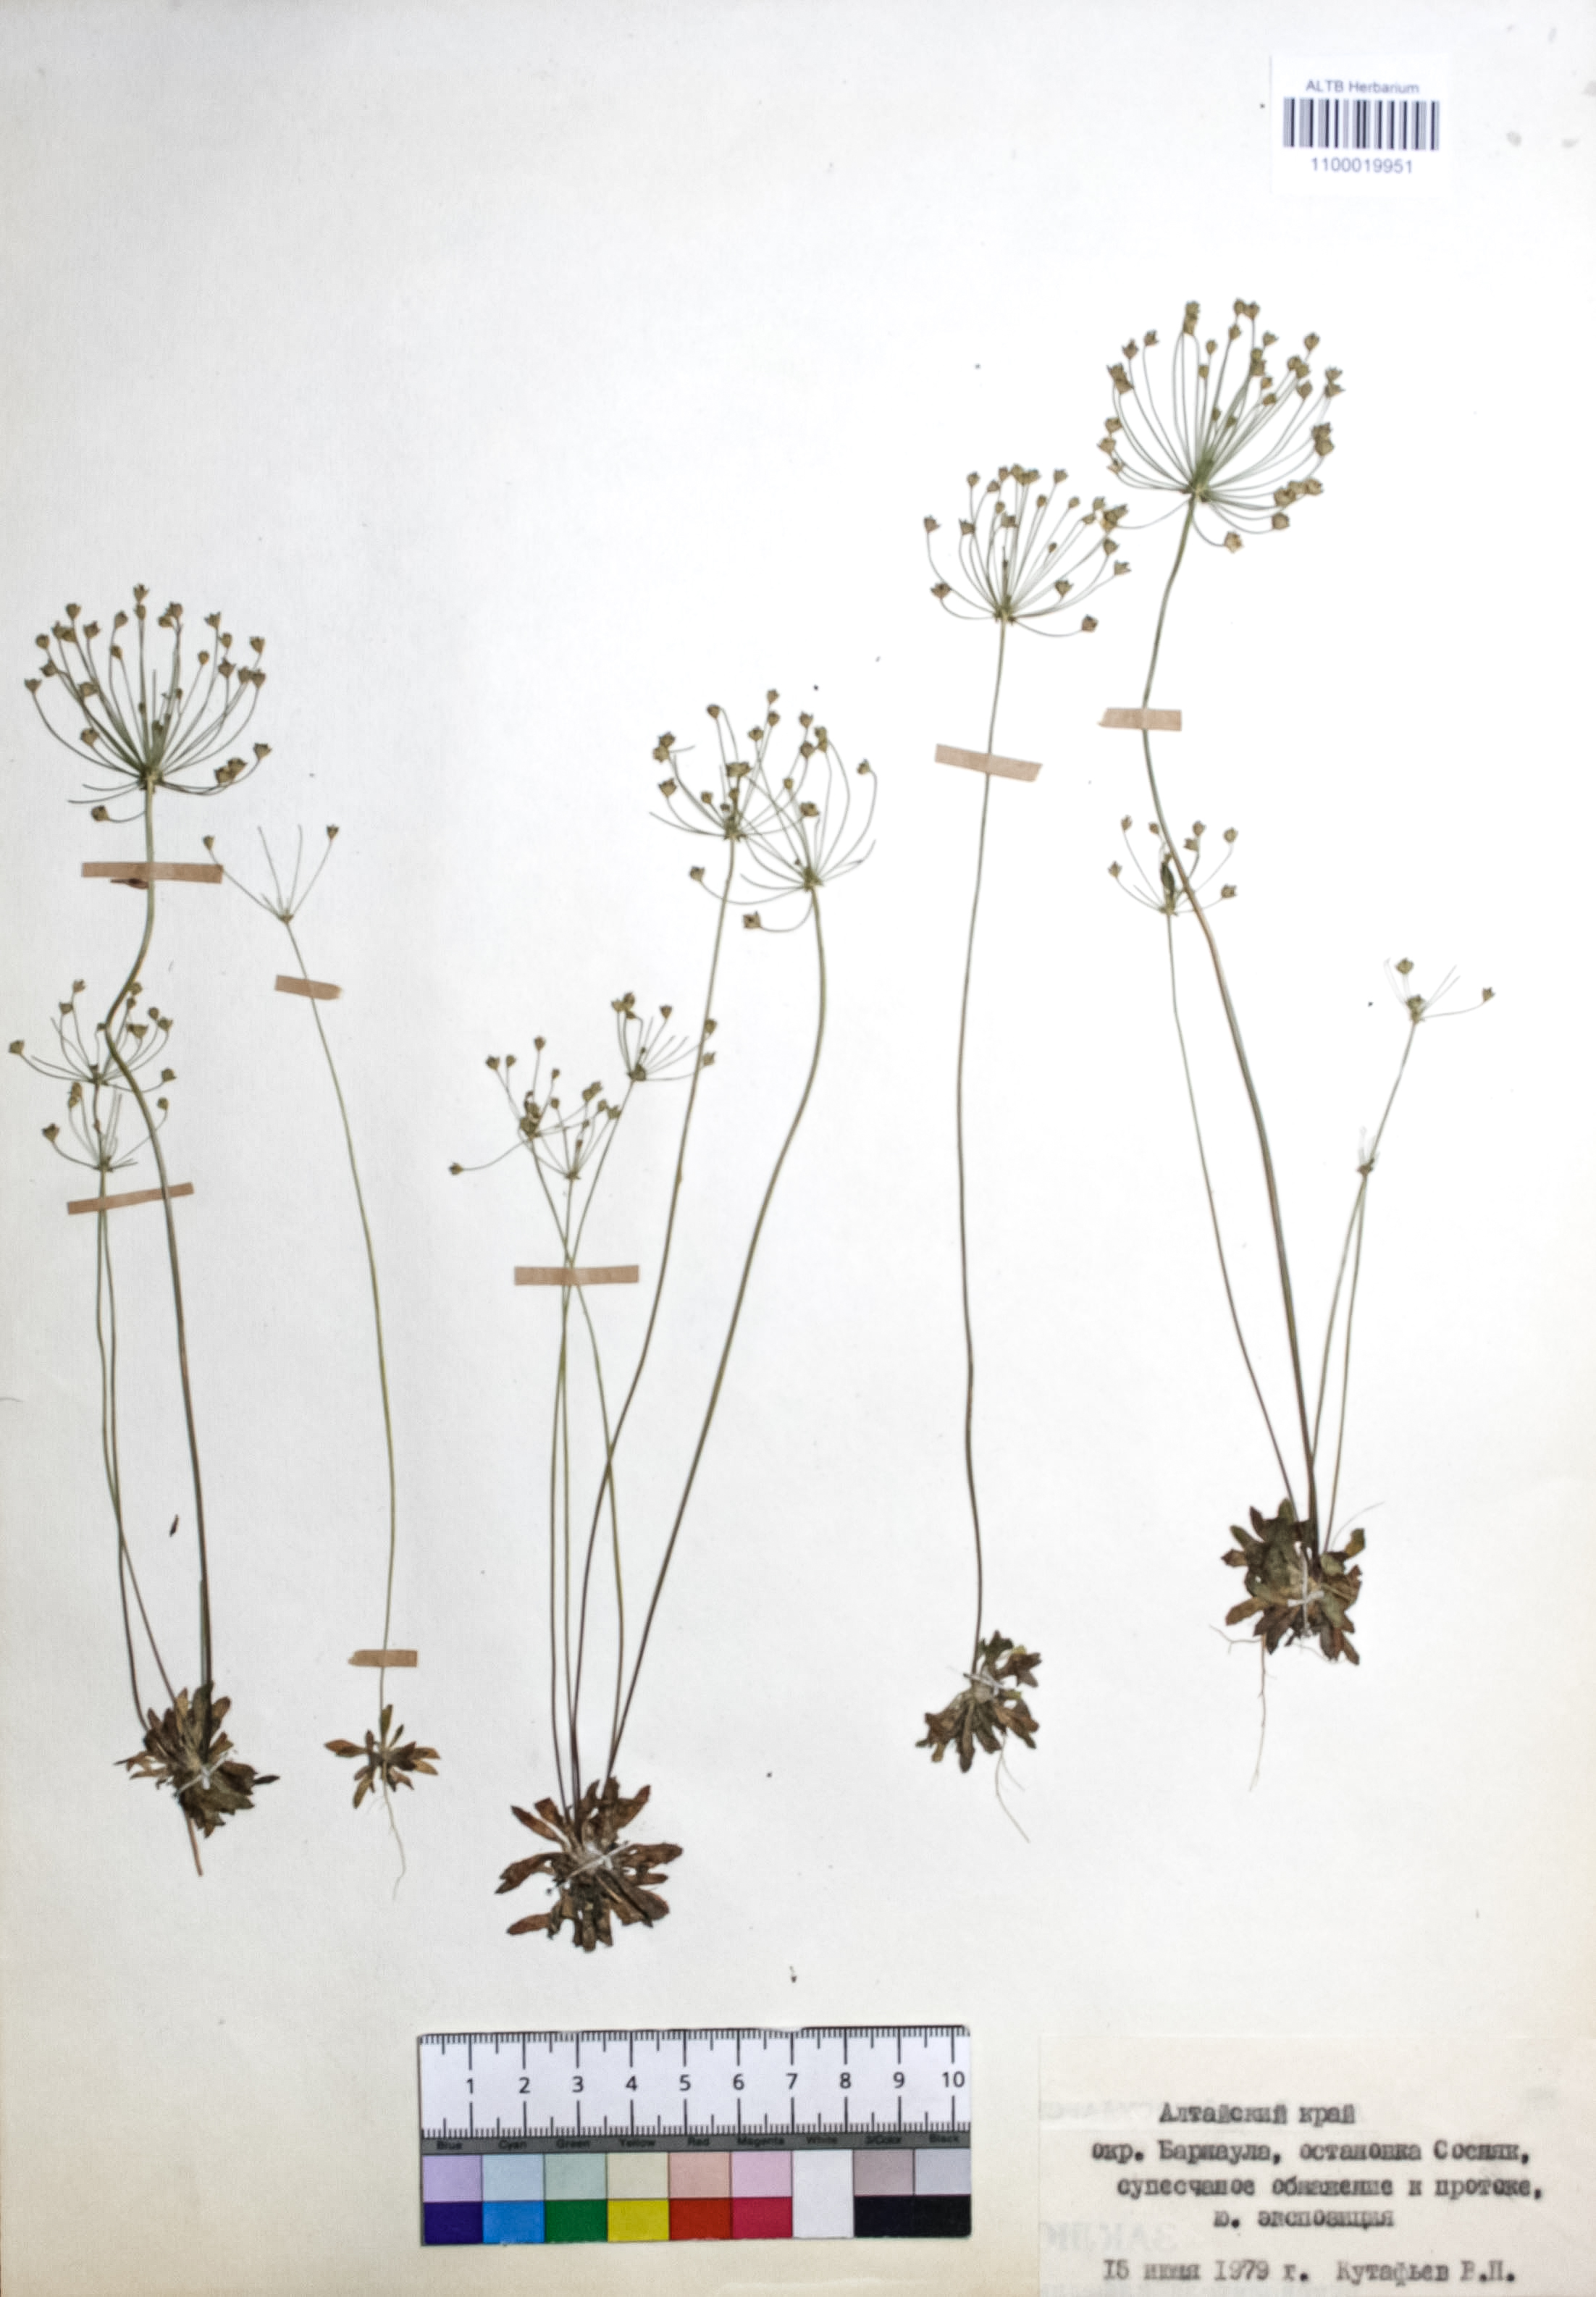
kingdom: Plantae
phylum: Tracheophyta
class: Magnoliopsida
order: Ericales
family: Primulaceae
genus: Androsace
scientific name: Androsace septentrionalis
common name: Hairy northern fairy-candelabra
